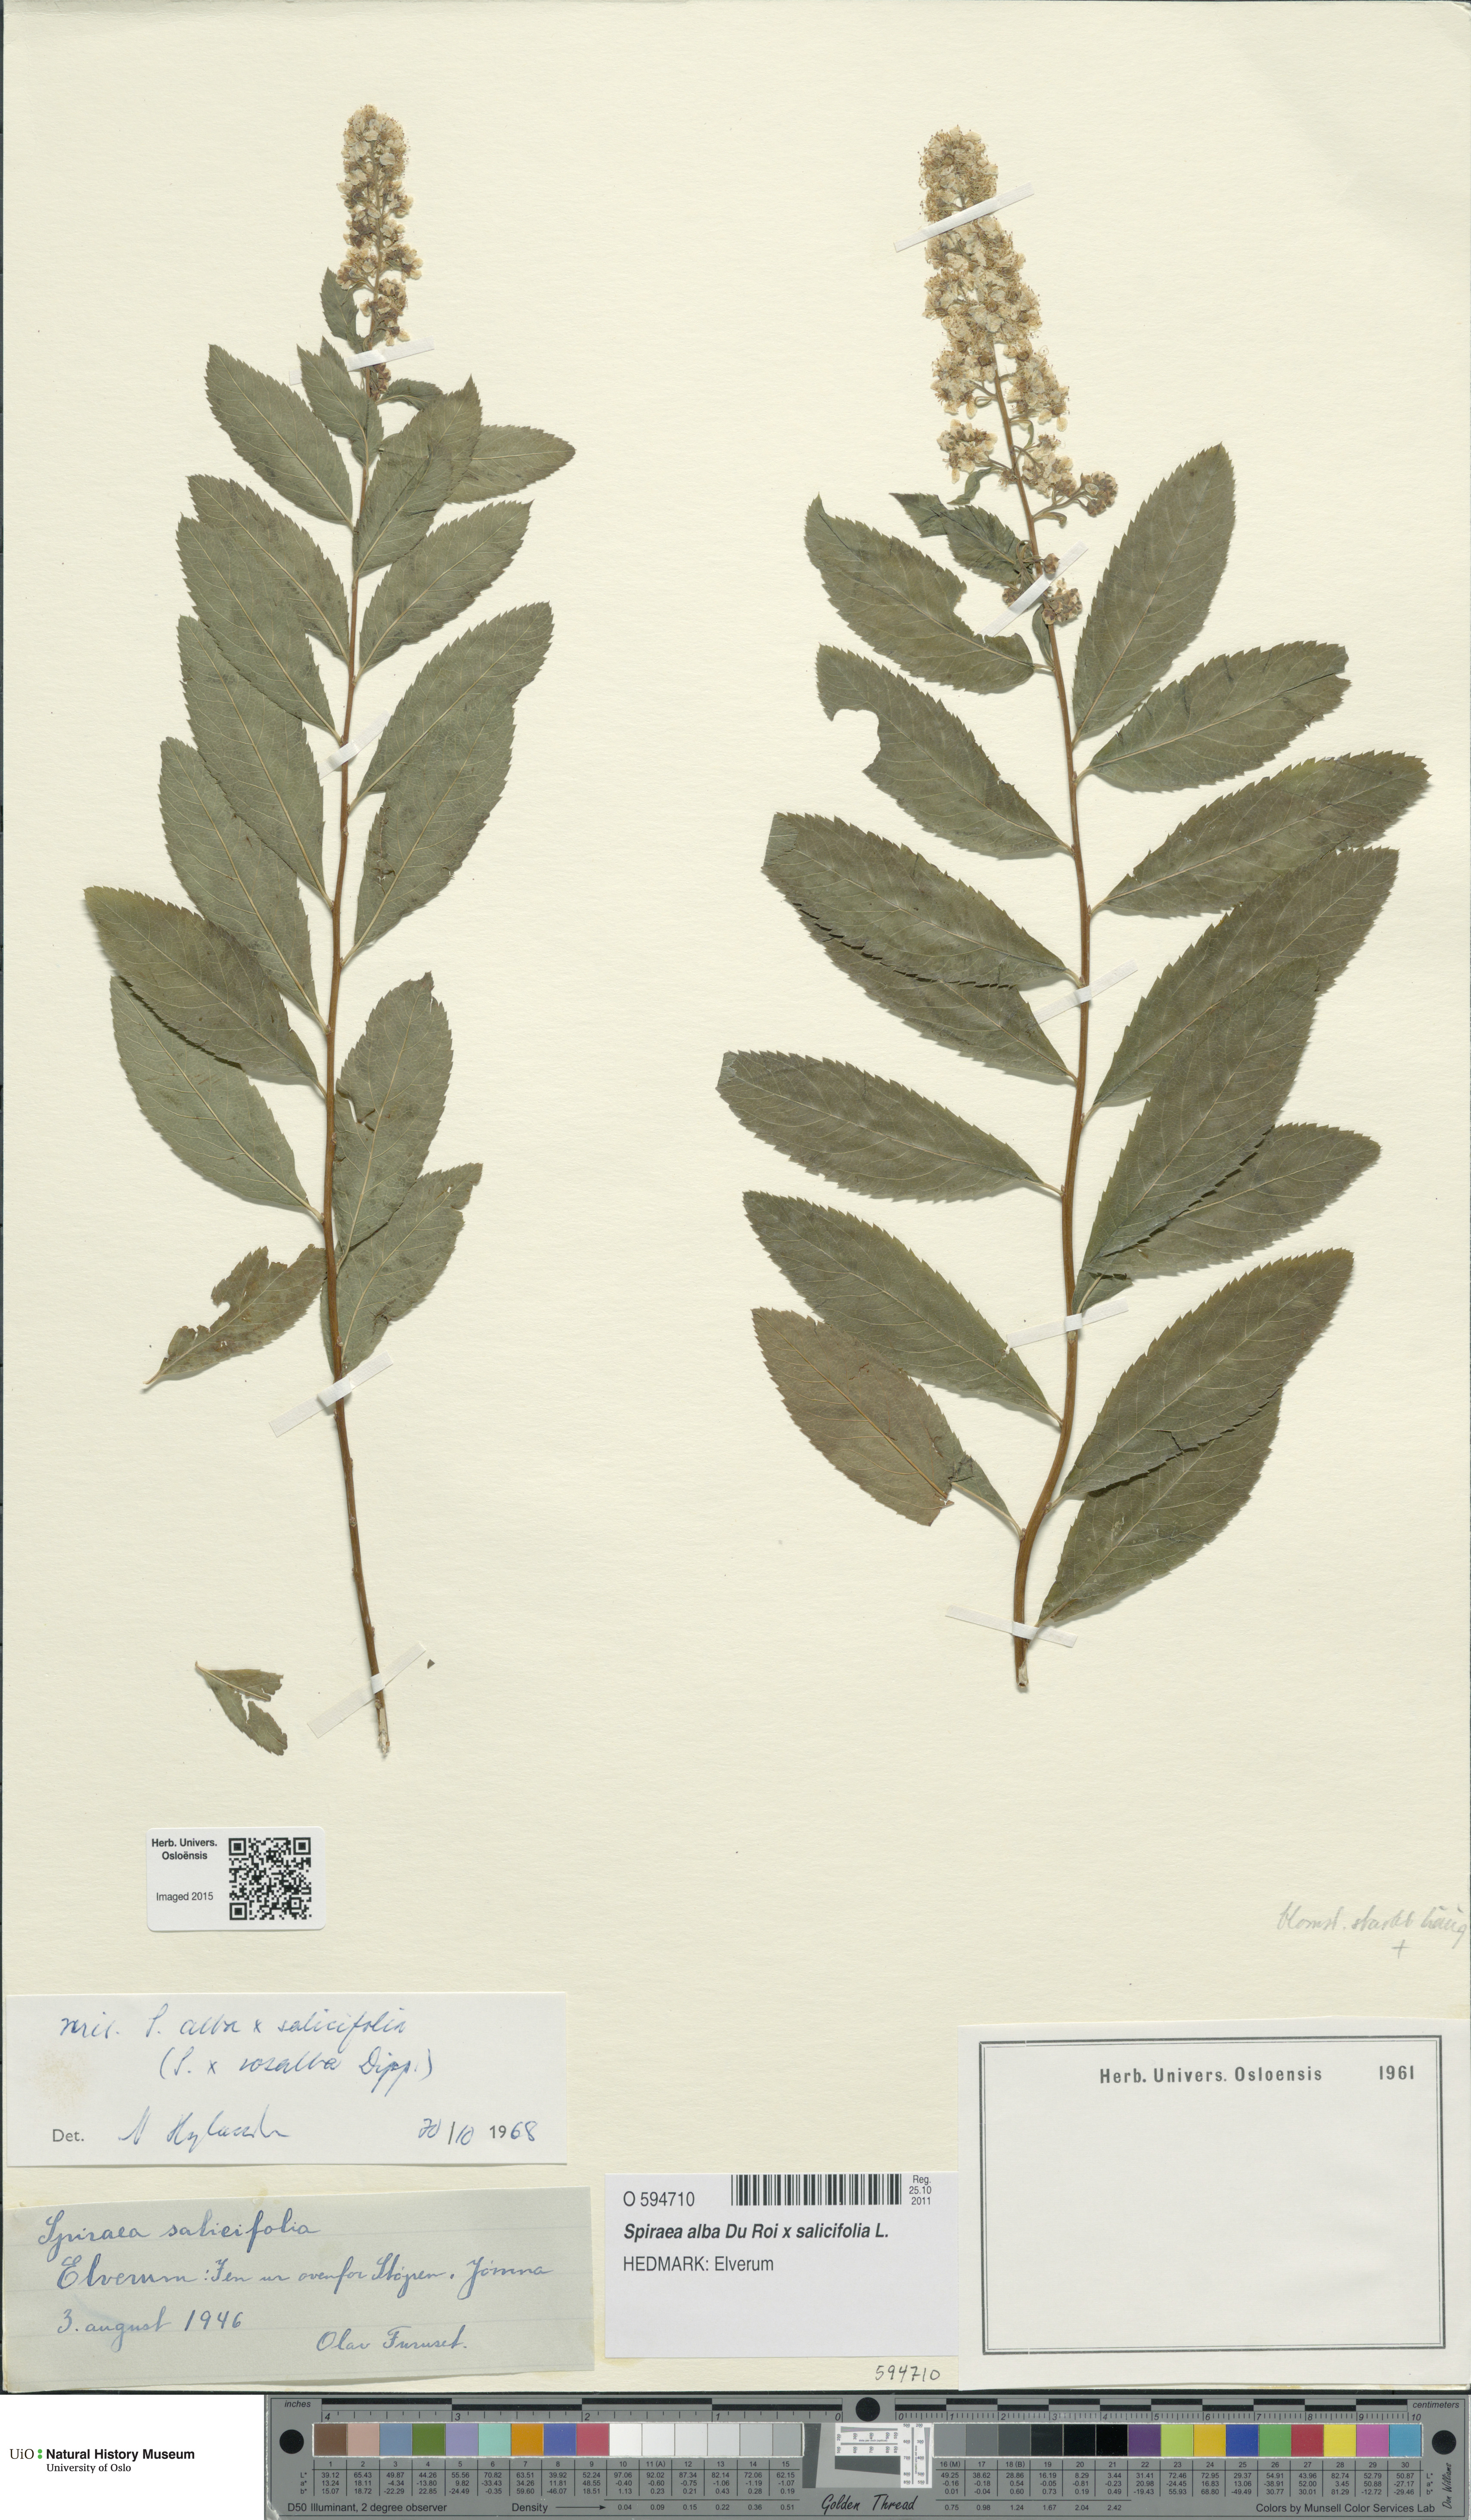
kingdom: Plantae
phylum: Tracheophyta
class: Magnoliopsida
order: Rosales
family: Rosaceae
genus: Spiraea
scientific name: Spiraea
